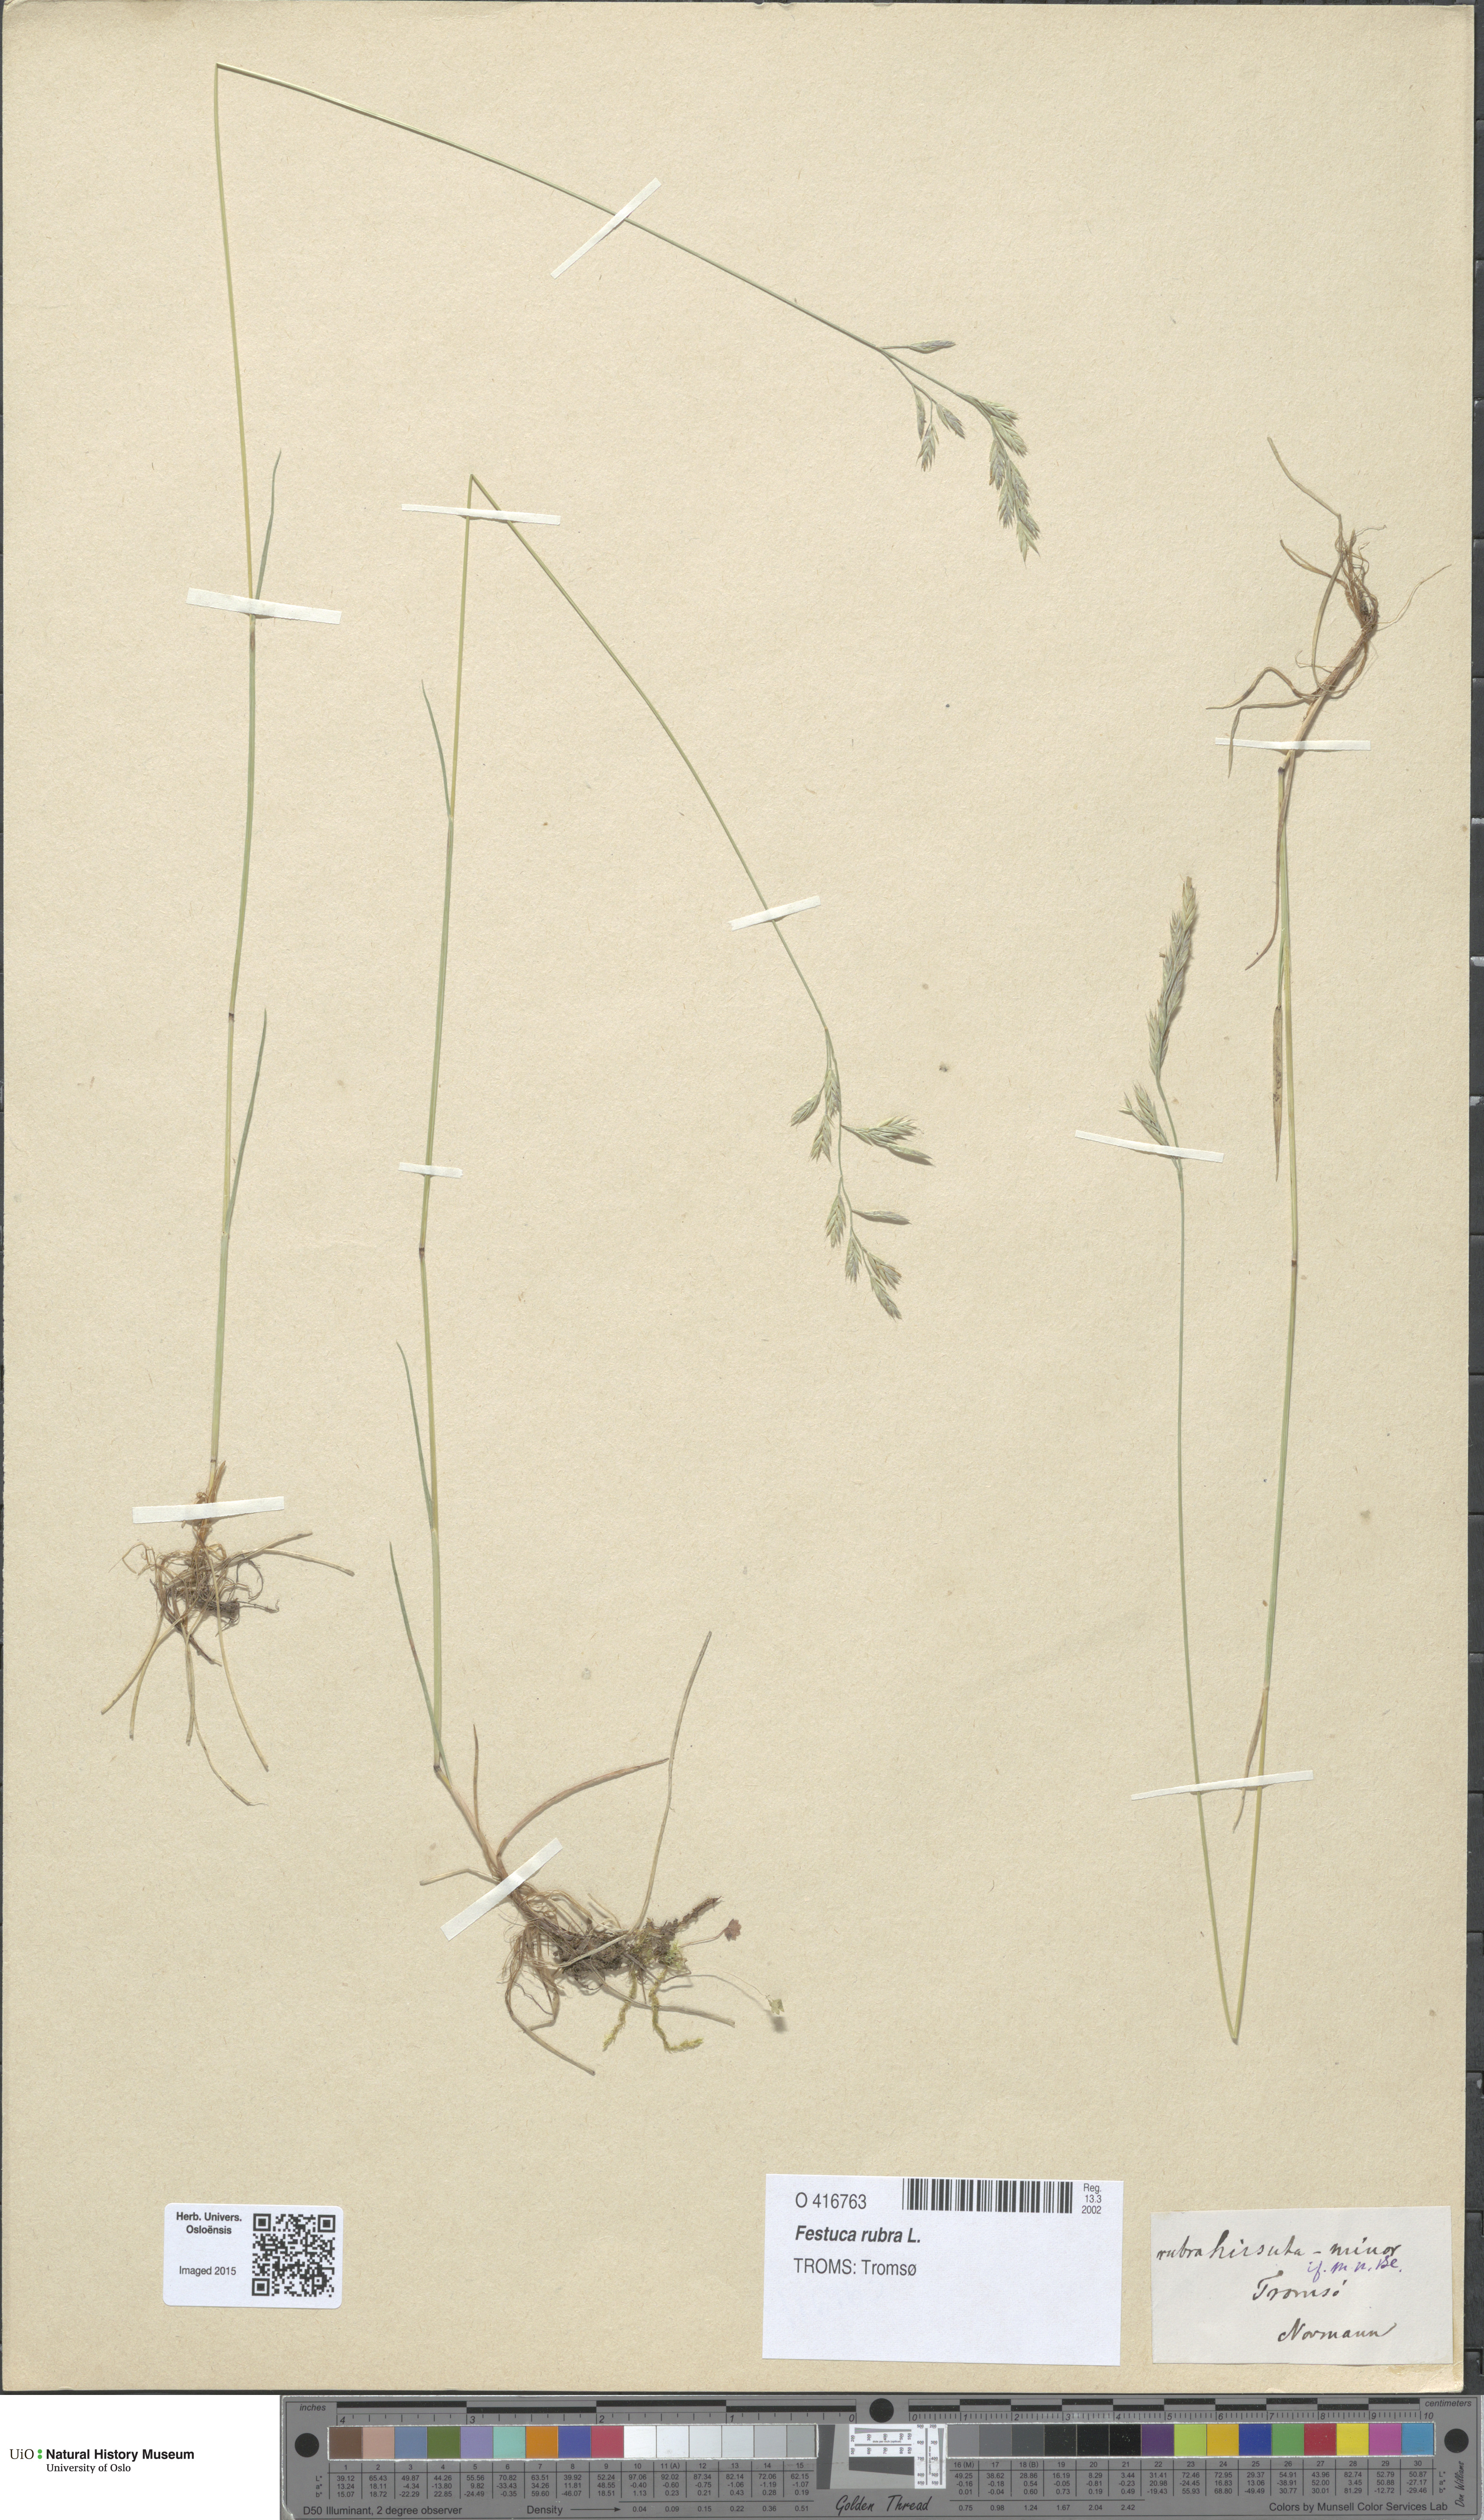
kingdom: Plantae
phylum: Tracheophyta
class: Liliopsida
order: Poales
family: Poaceae
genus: Festuca
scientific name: Festuca rubra
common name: Red fescue
